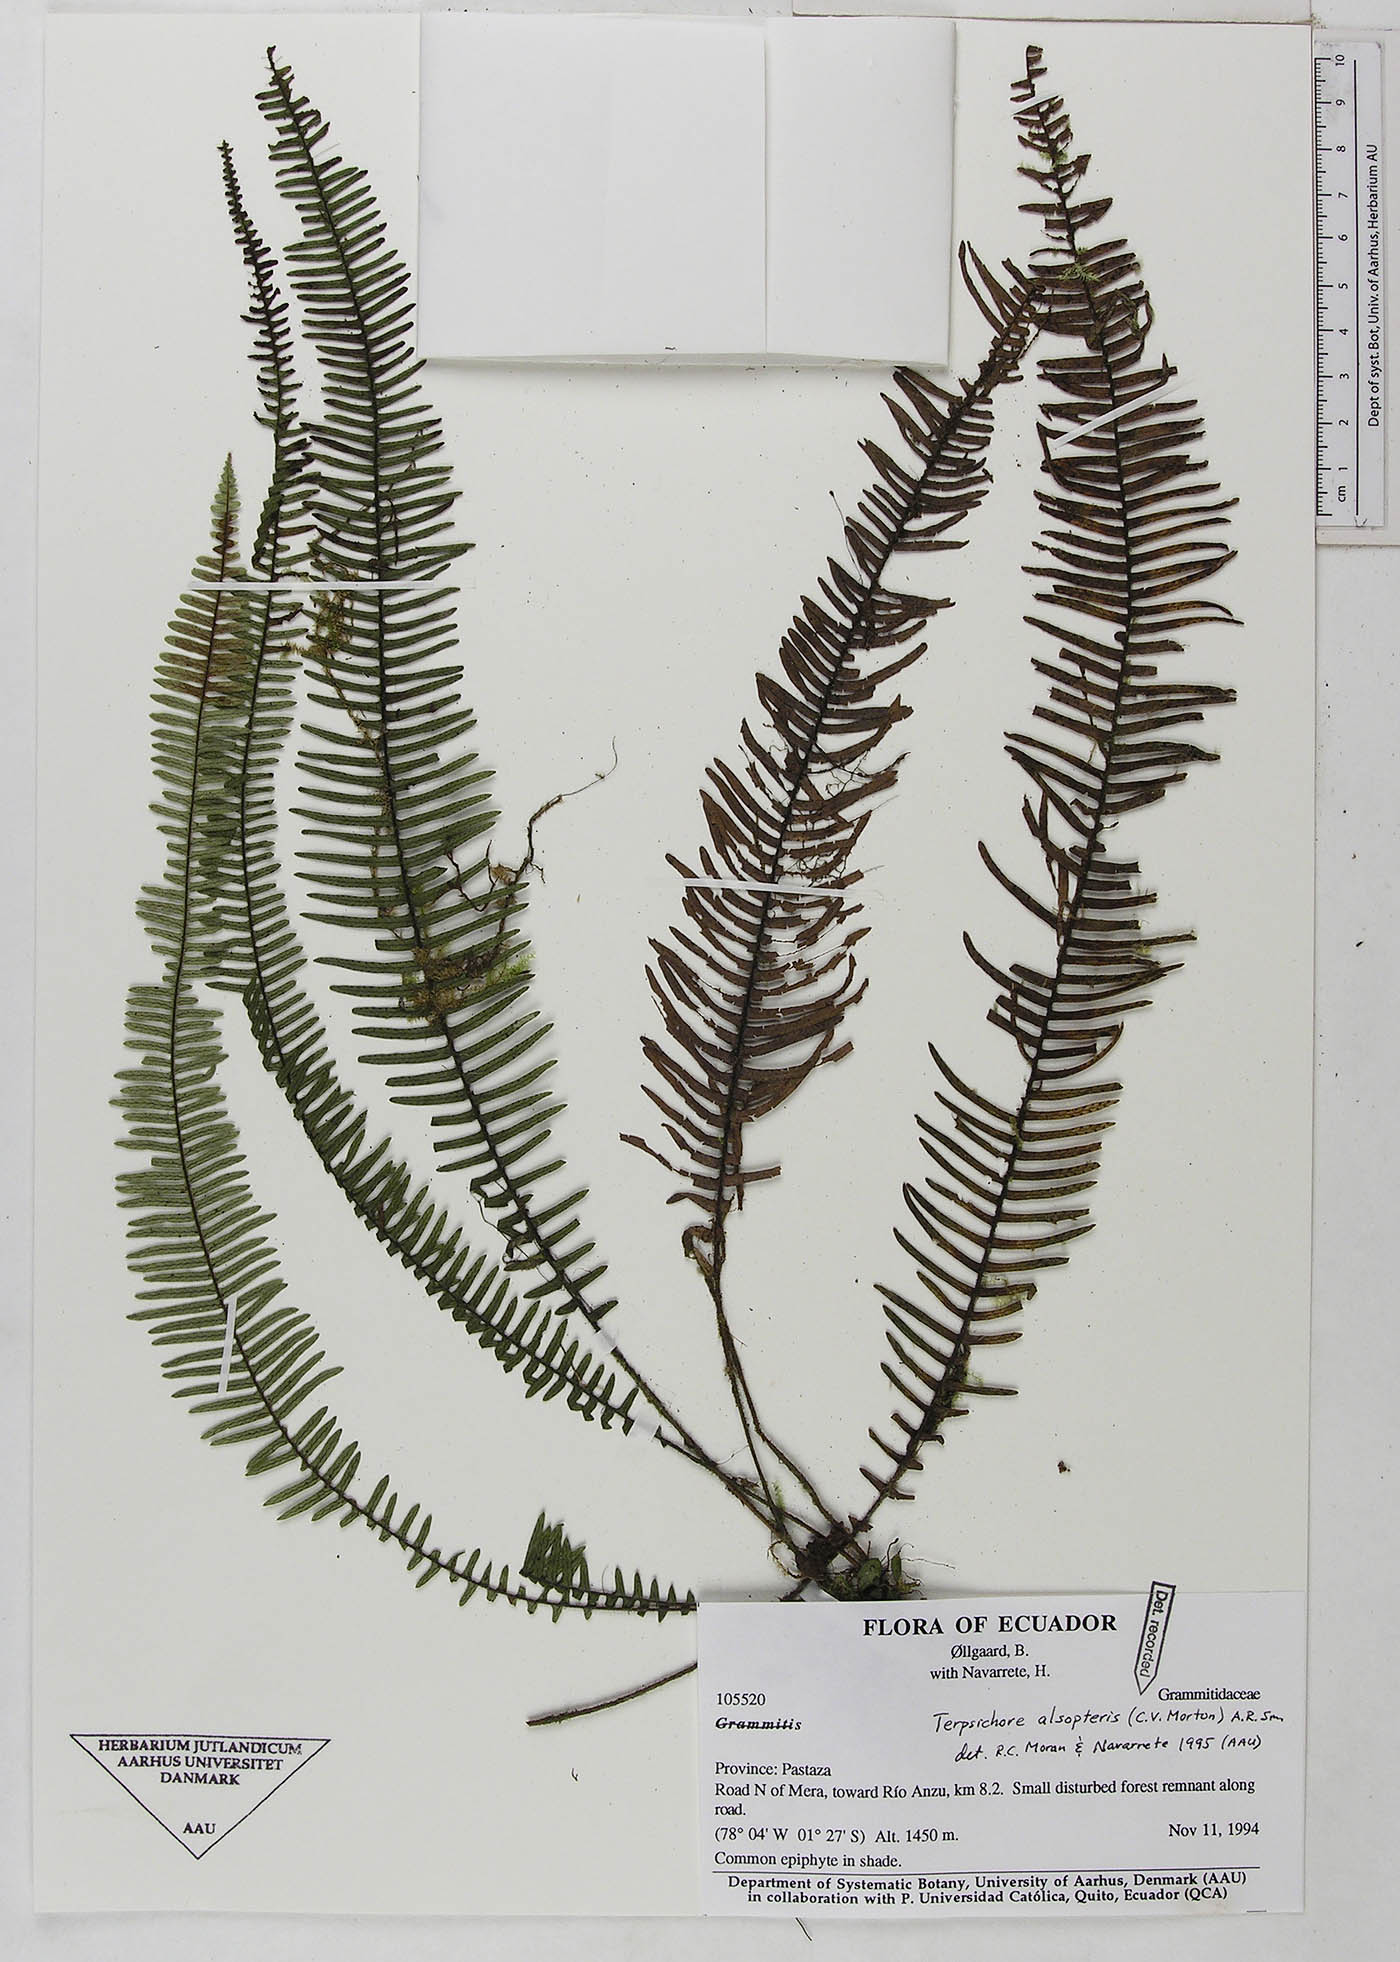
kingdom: Plantae
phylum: Tracheophyta
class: Polypodiopsida
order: Polypodiales
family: Polypodiaceae
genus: Mycopteris
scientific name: Mycopteris alsopteris
